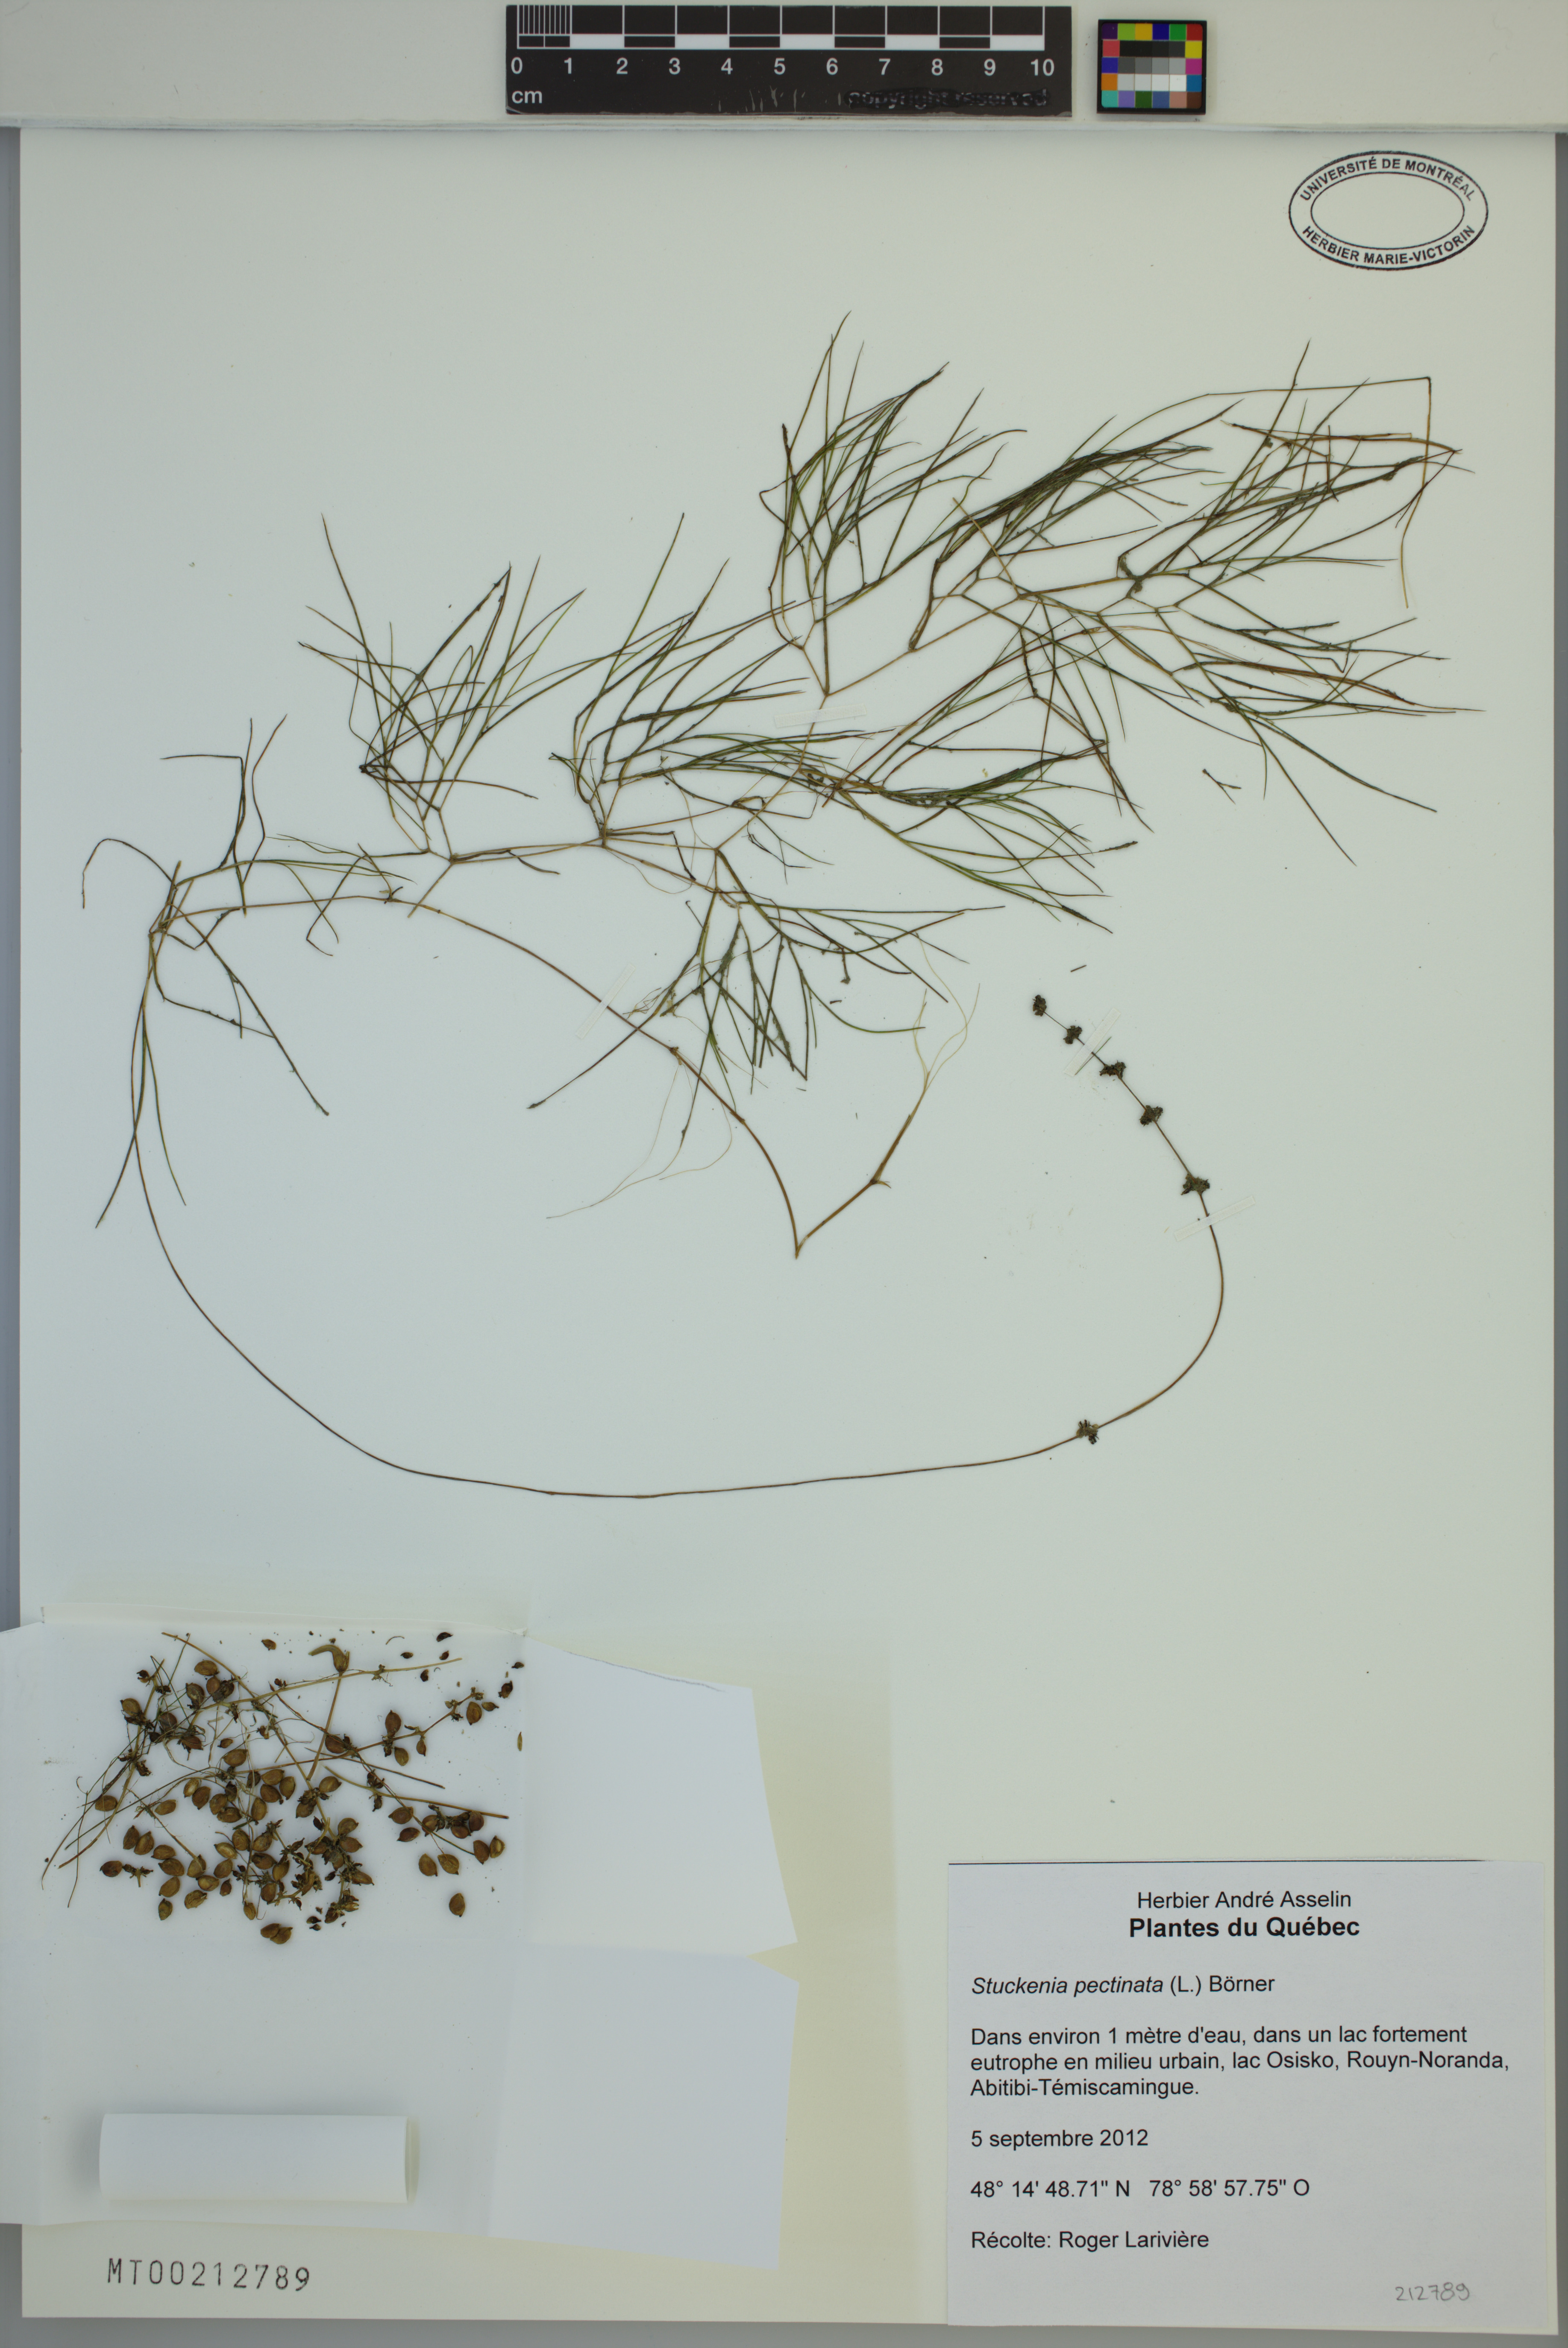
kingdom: Plantae
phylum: Tracheophyta
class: Liliopsida
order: Alismatales
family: Potamogetonaceae
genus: Stuckenia
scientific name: Stuckenia pectinata
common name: Sago pondweed
